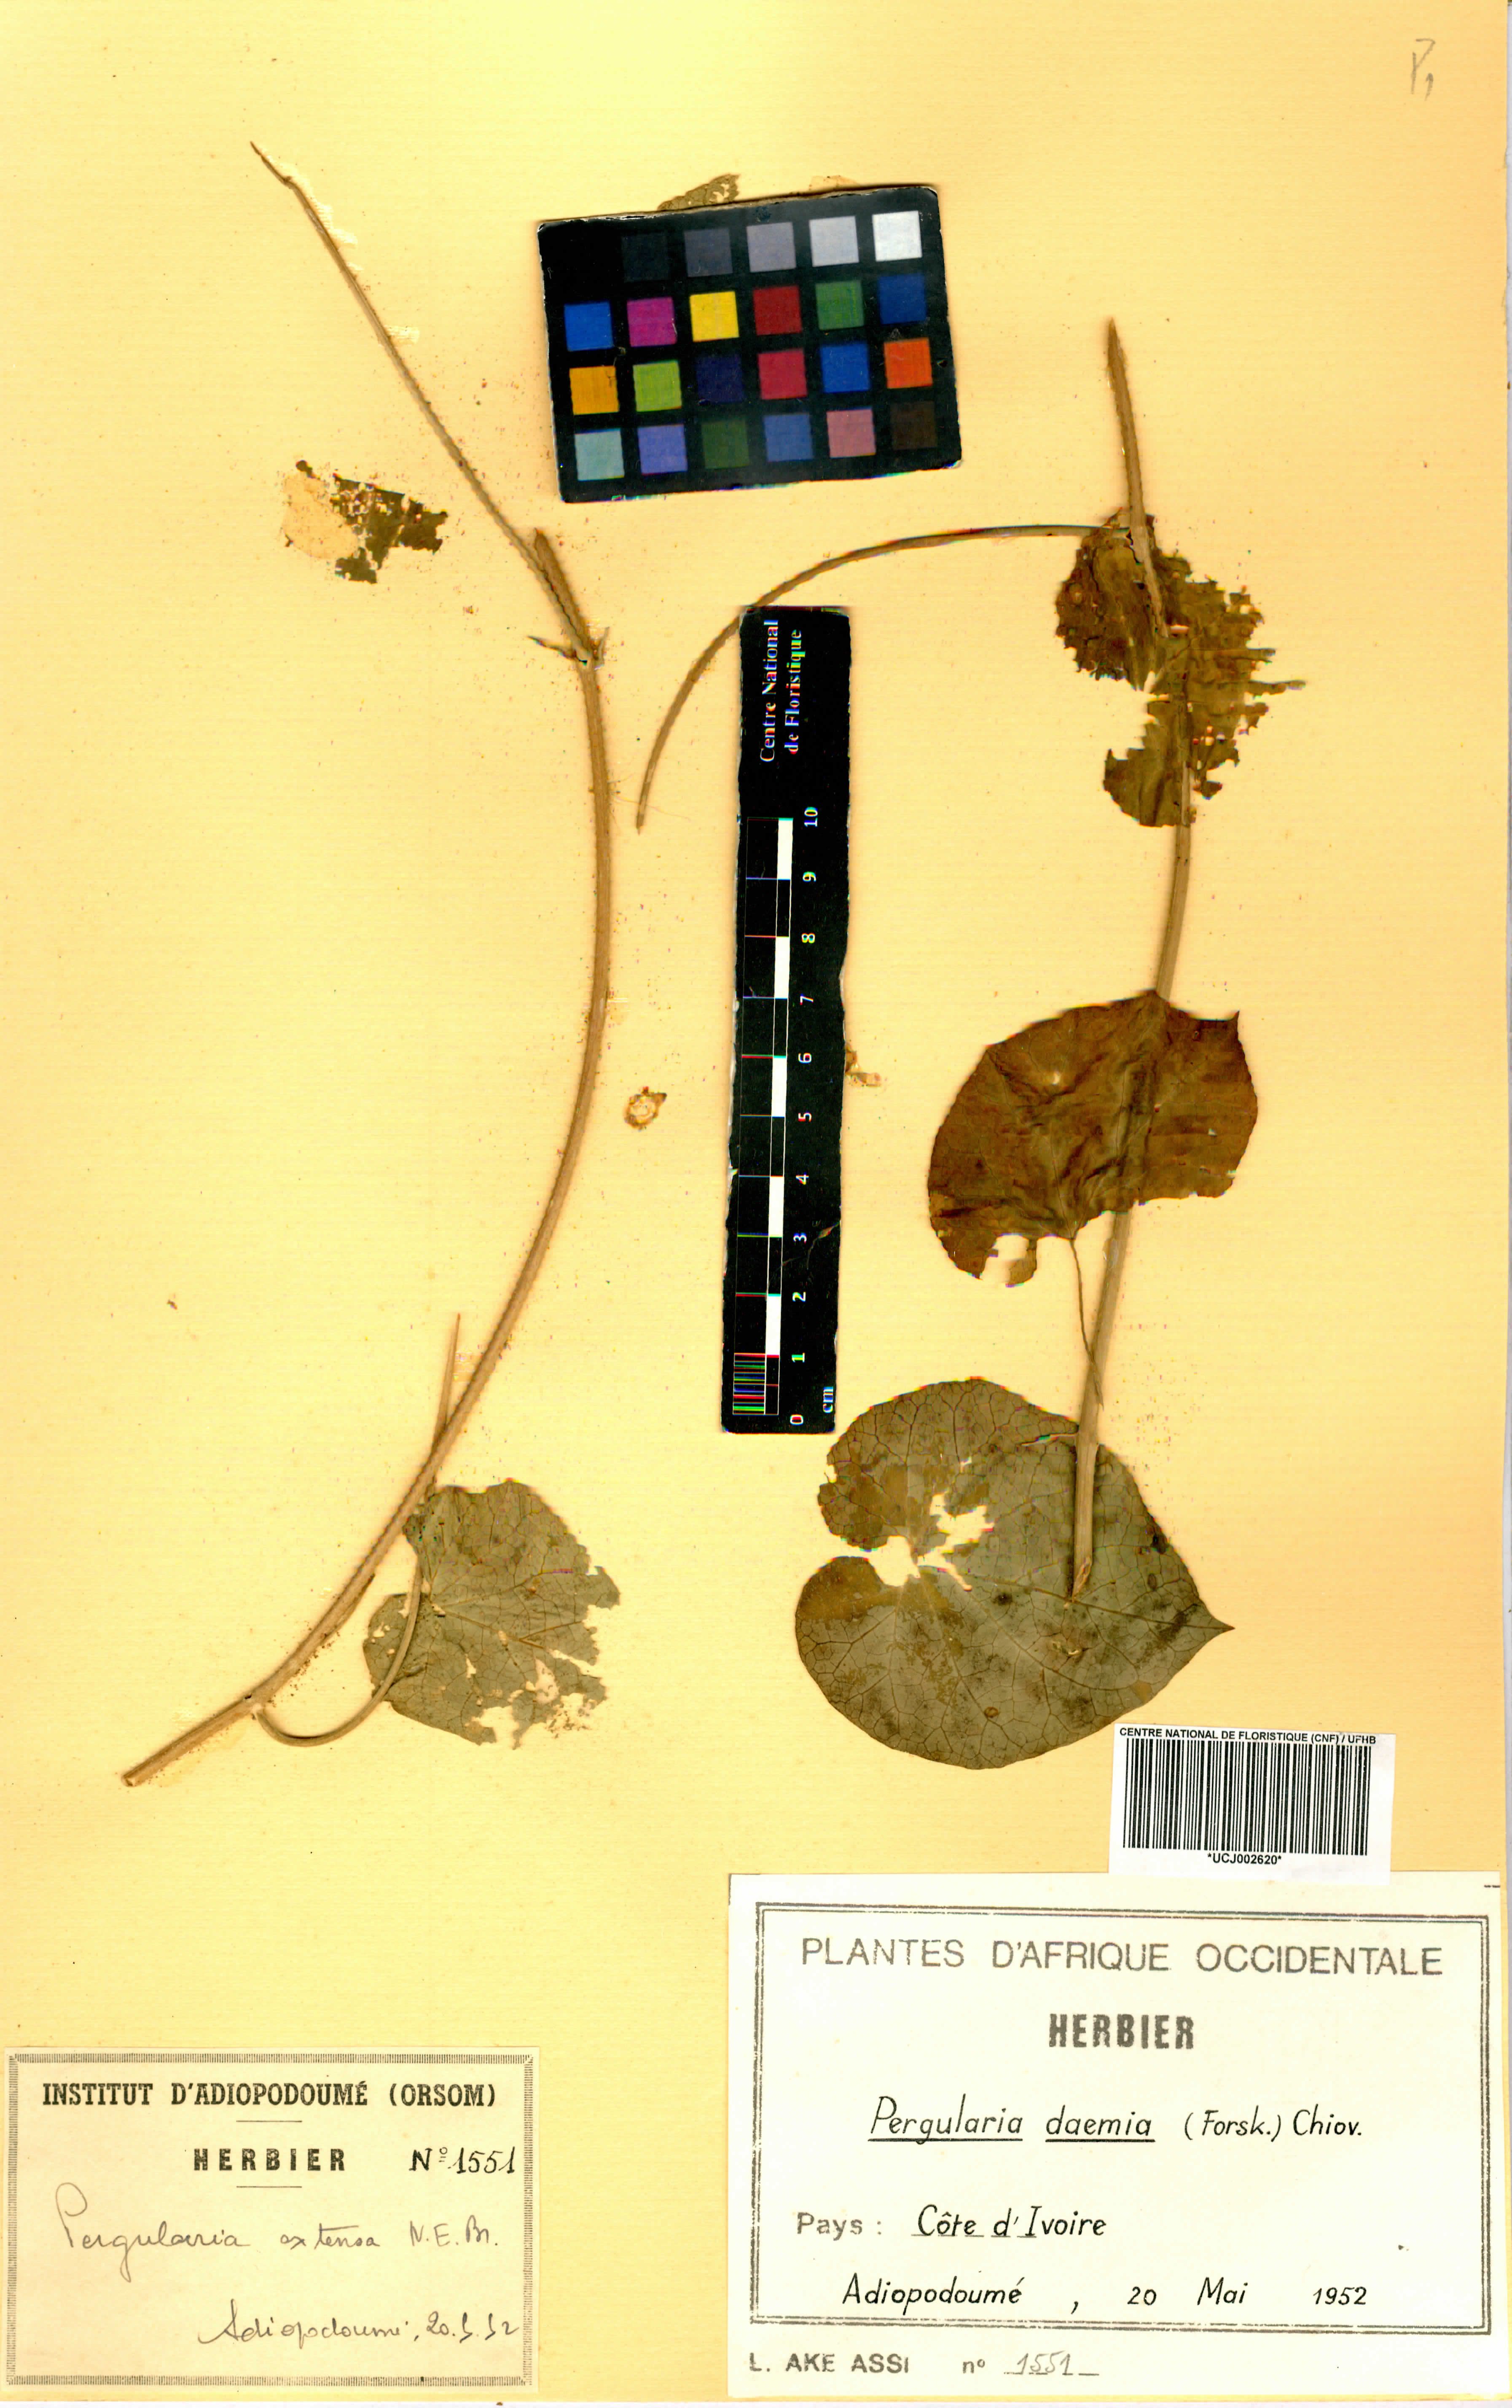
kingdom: Plantae
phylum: Tracheophyta
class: Magnoliopsida
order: Gentianales
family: Apocynaceae
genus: Pergularia
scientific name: Pergularia daemia
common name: Trellis-vine
